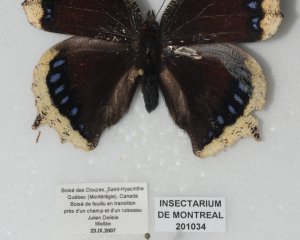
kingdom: Animalia
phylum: Arthropoda
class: Insecta
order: Lepidoptera
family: Nymphalidae
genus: Nymphalis
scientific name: Nymphalis antiopa
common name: Mourning Cloak
